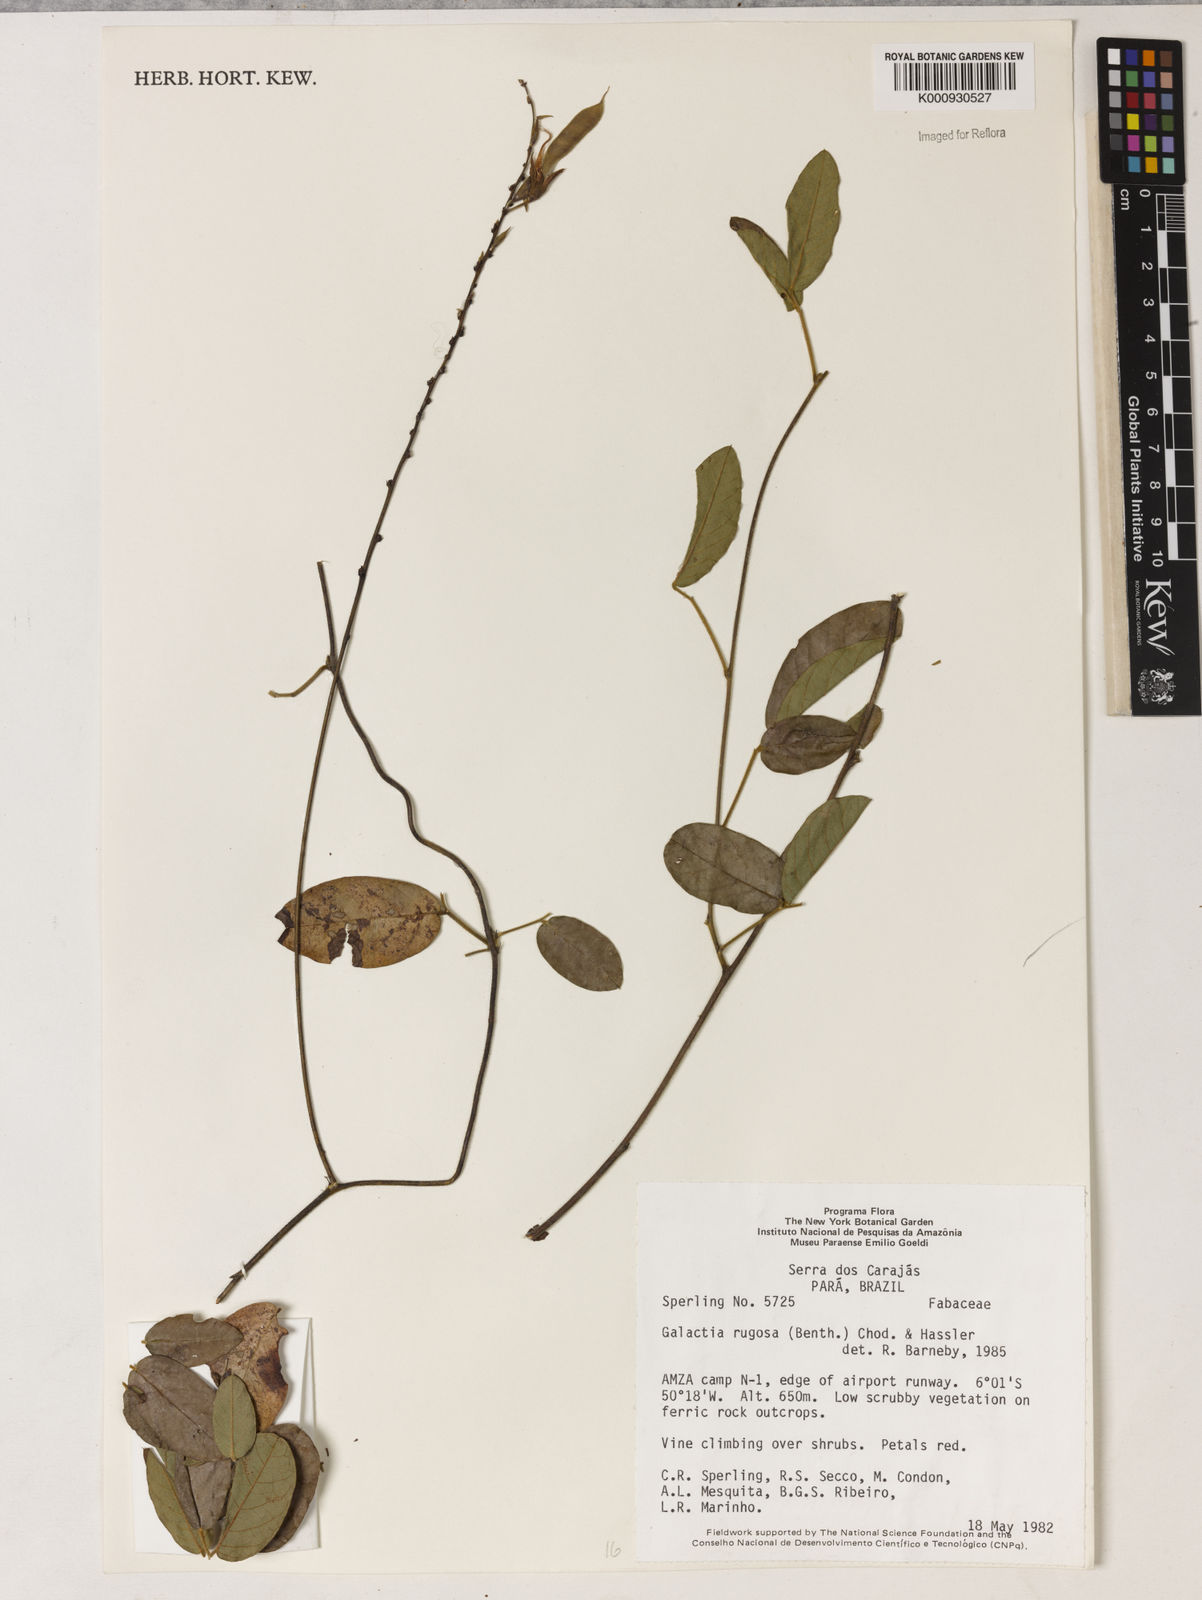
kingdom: Plantae
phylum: Tracheophyta
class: Magnoliopsida
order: Fabales
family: Fabaceae
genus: Galactia
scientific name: Galactia
